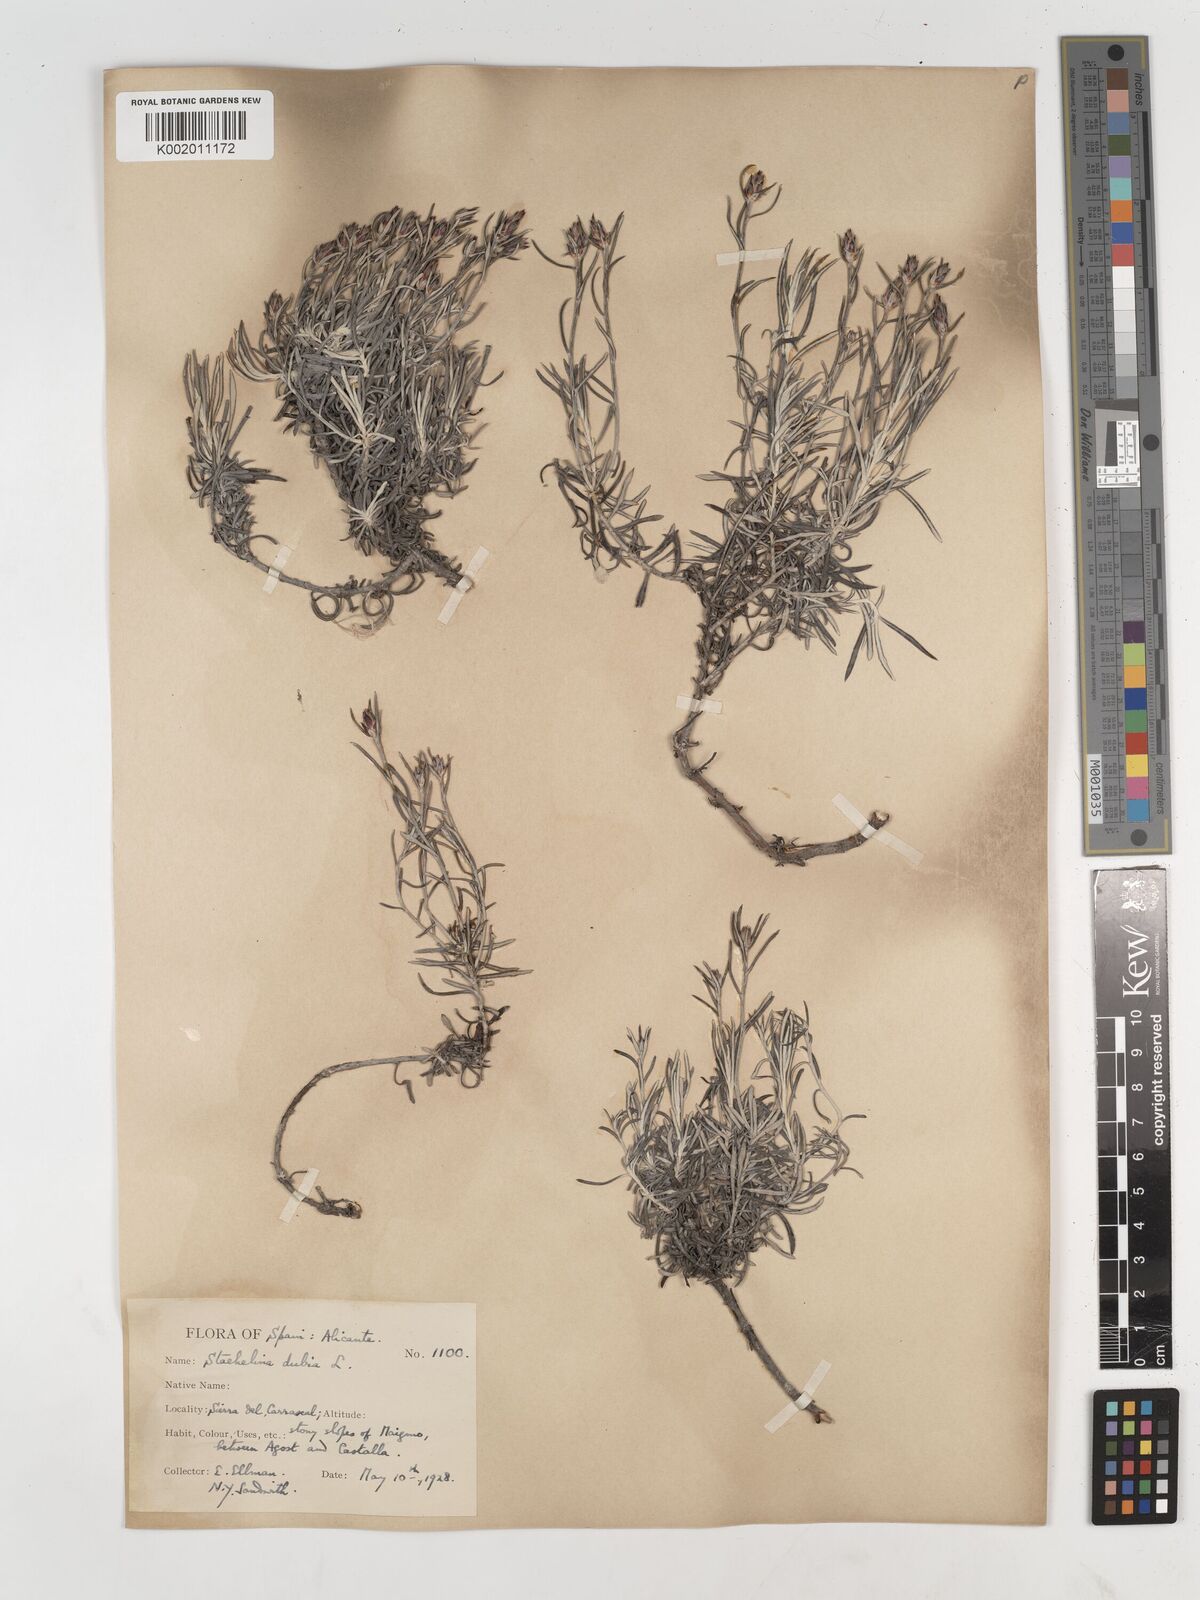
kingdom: Plantae
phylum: Tracheophyta
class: Magnoliopsida
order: Asterales
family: Asteraceae
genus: Staehelina
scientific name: Staehelina dubia
